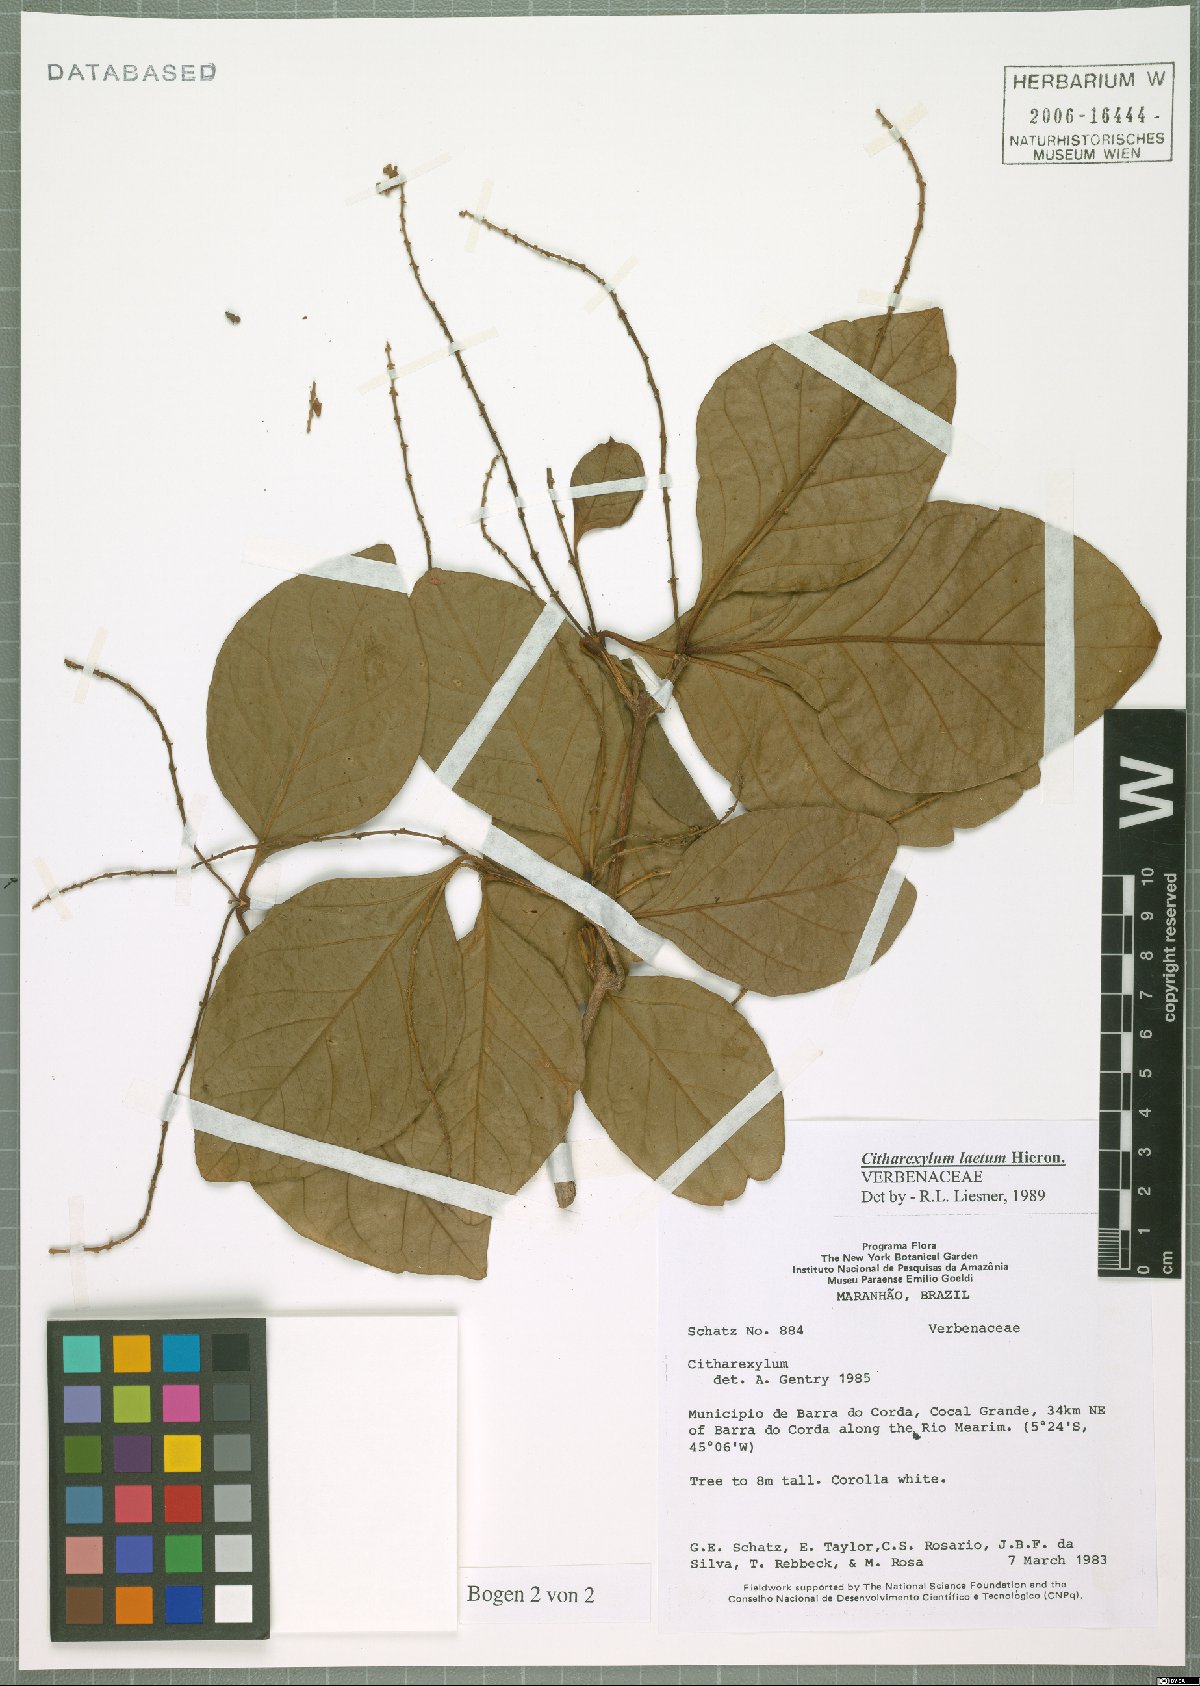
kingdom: Plantae
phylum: Tracheophyta
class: Magnoliopsida
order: Lamiales
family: Verbenaceae
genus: Citharexylum
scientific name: Citharexylum myrianthum
